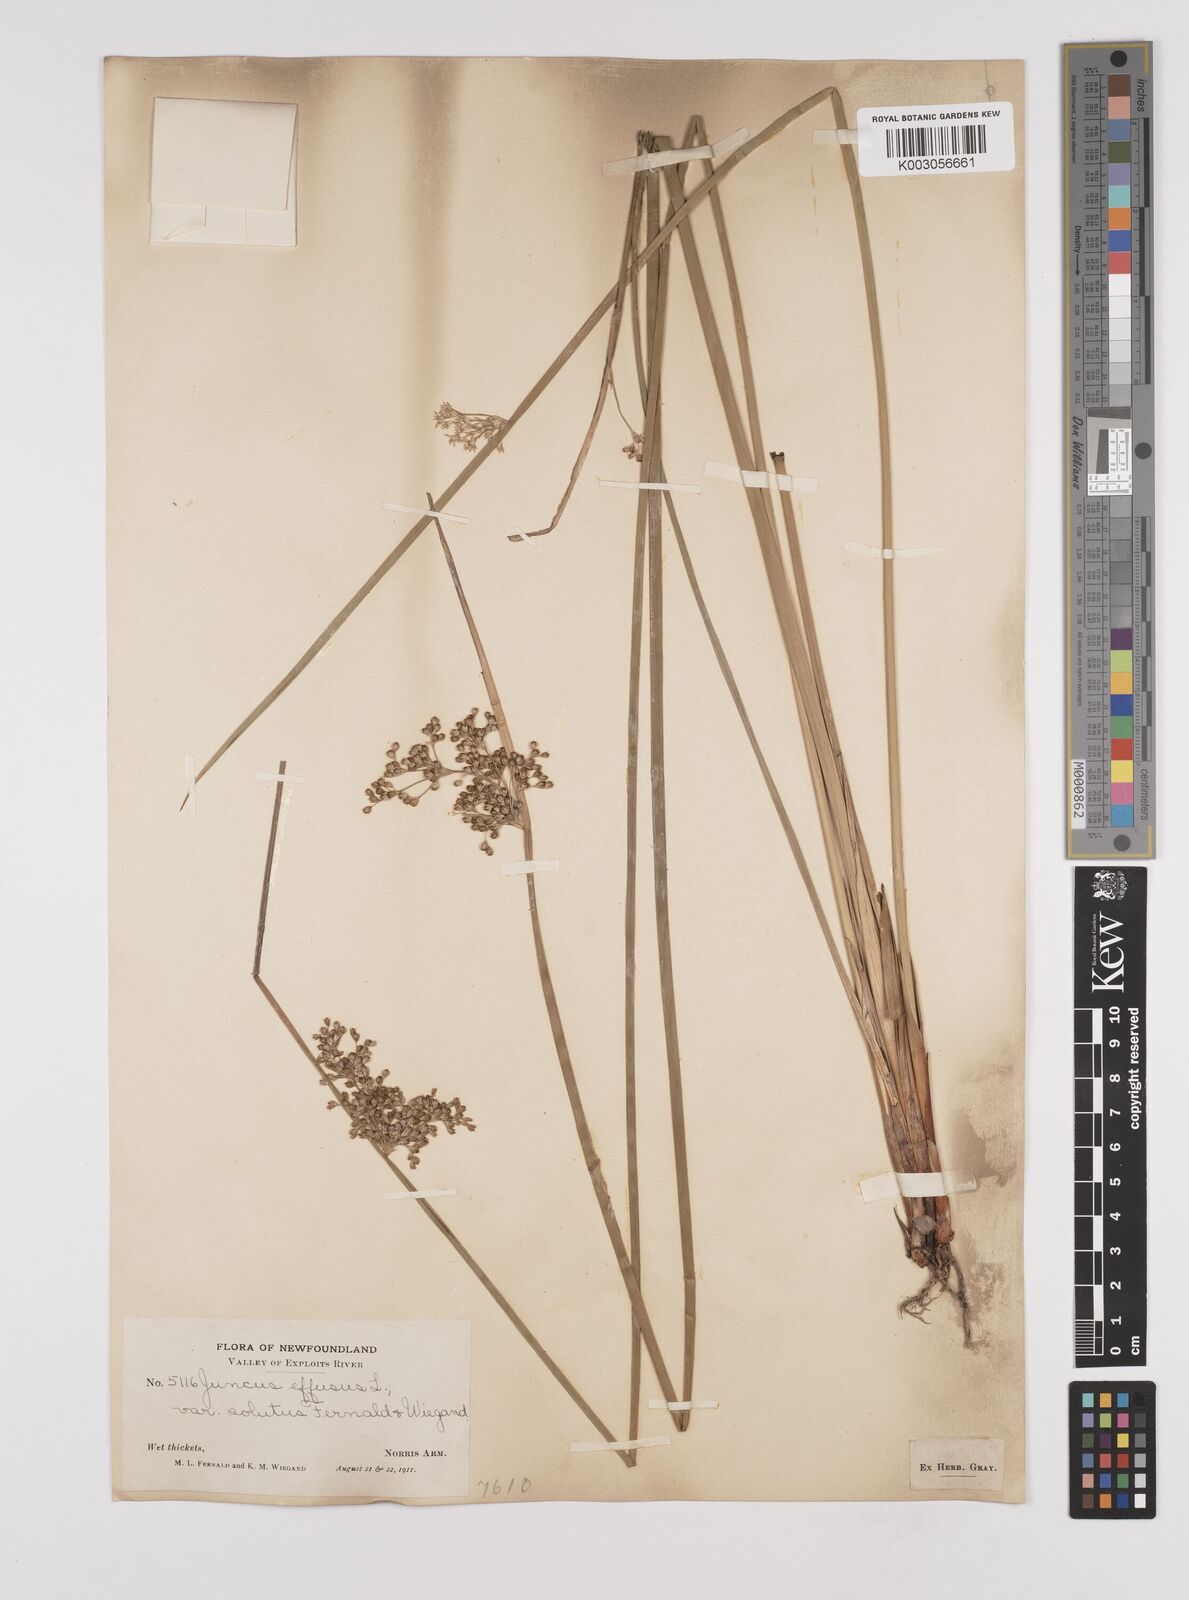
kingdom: Plantae
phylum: Tracheophyta
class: Liliopsida
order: Poales
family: Juncaceae
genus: Juncus
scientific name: Juncus effusus
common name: Soft rush
